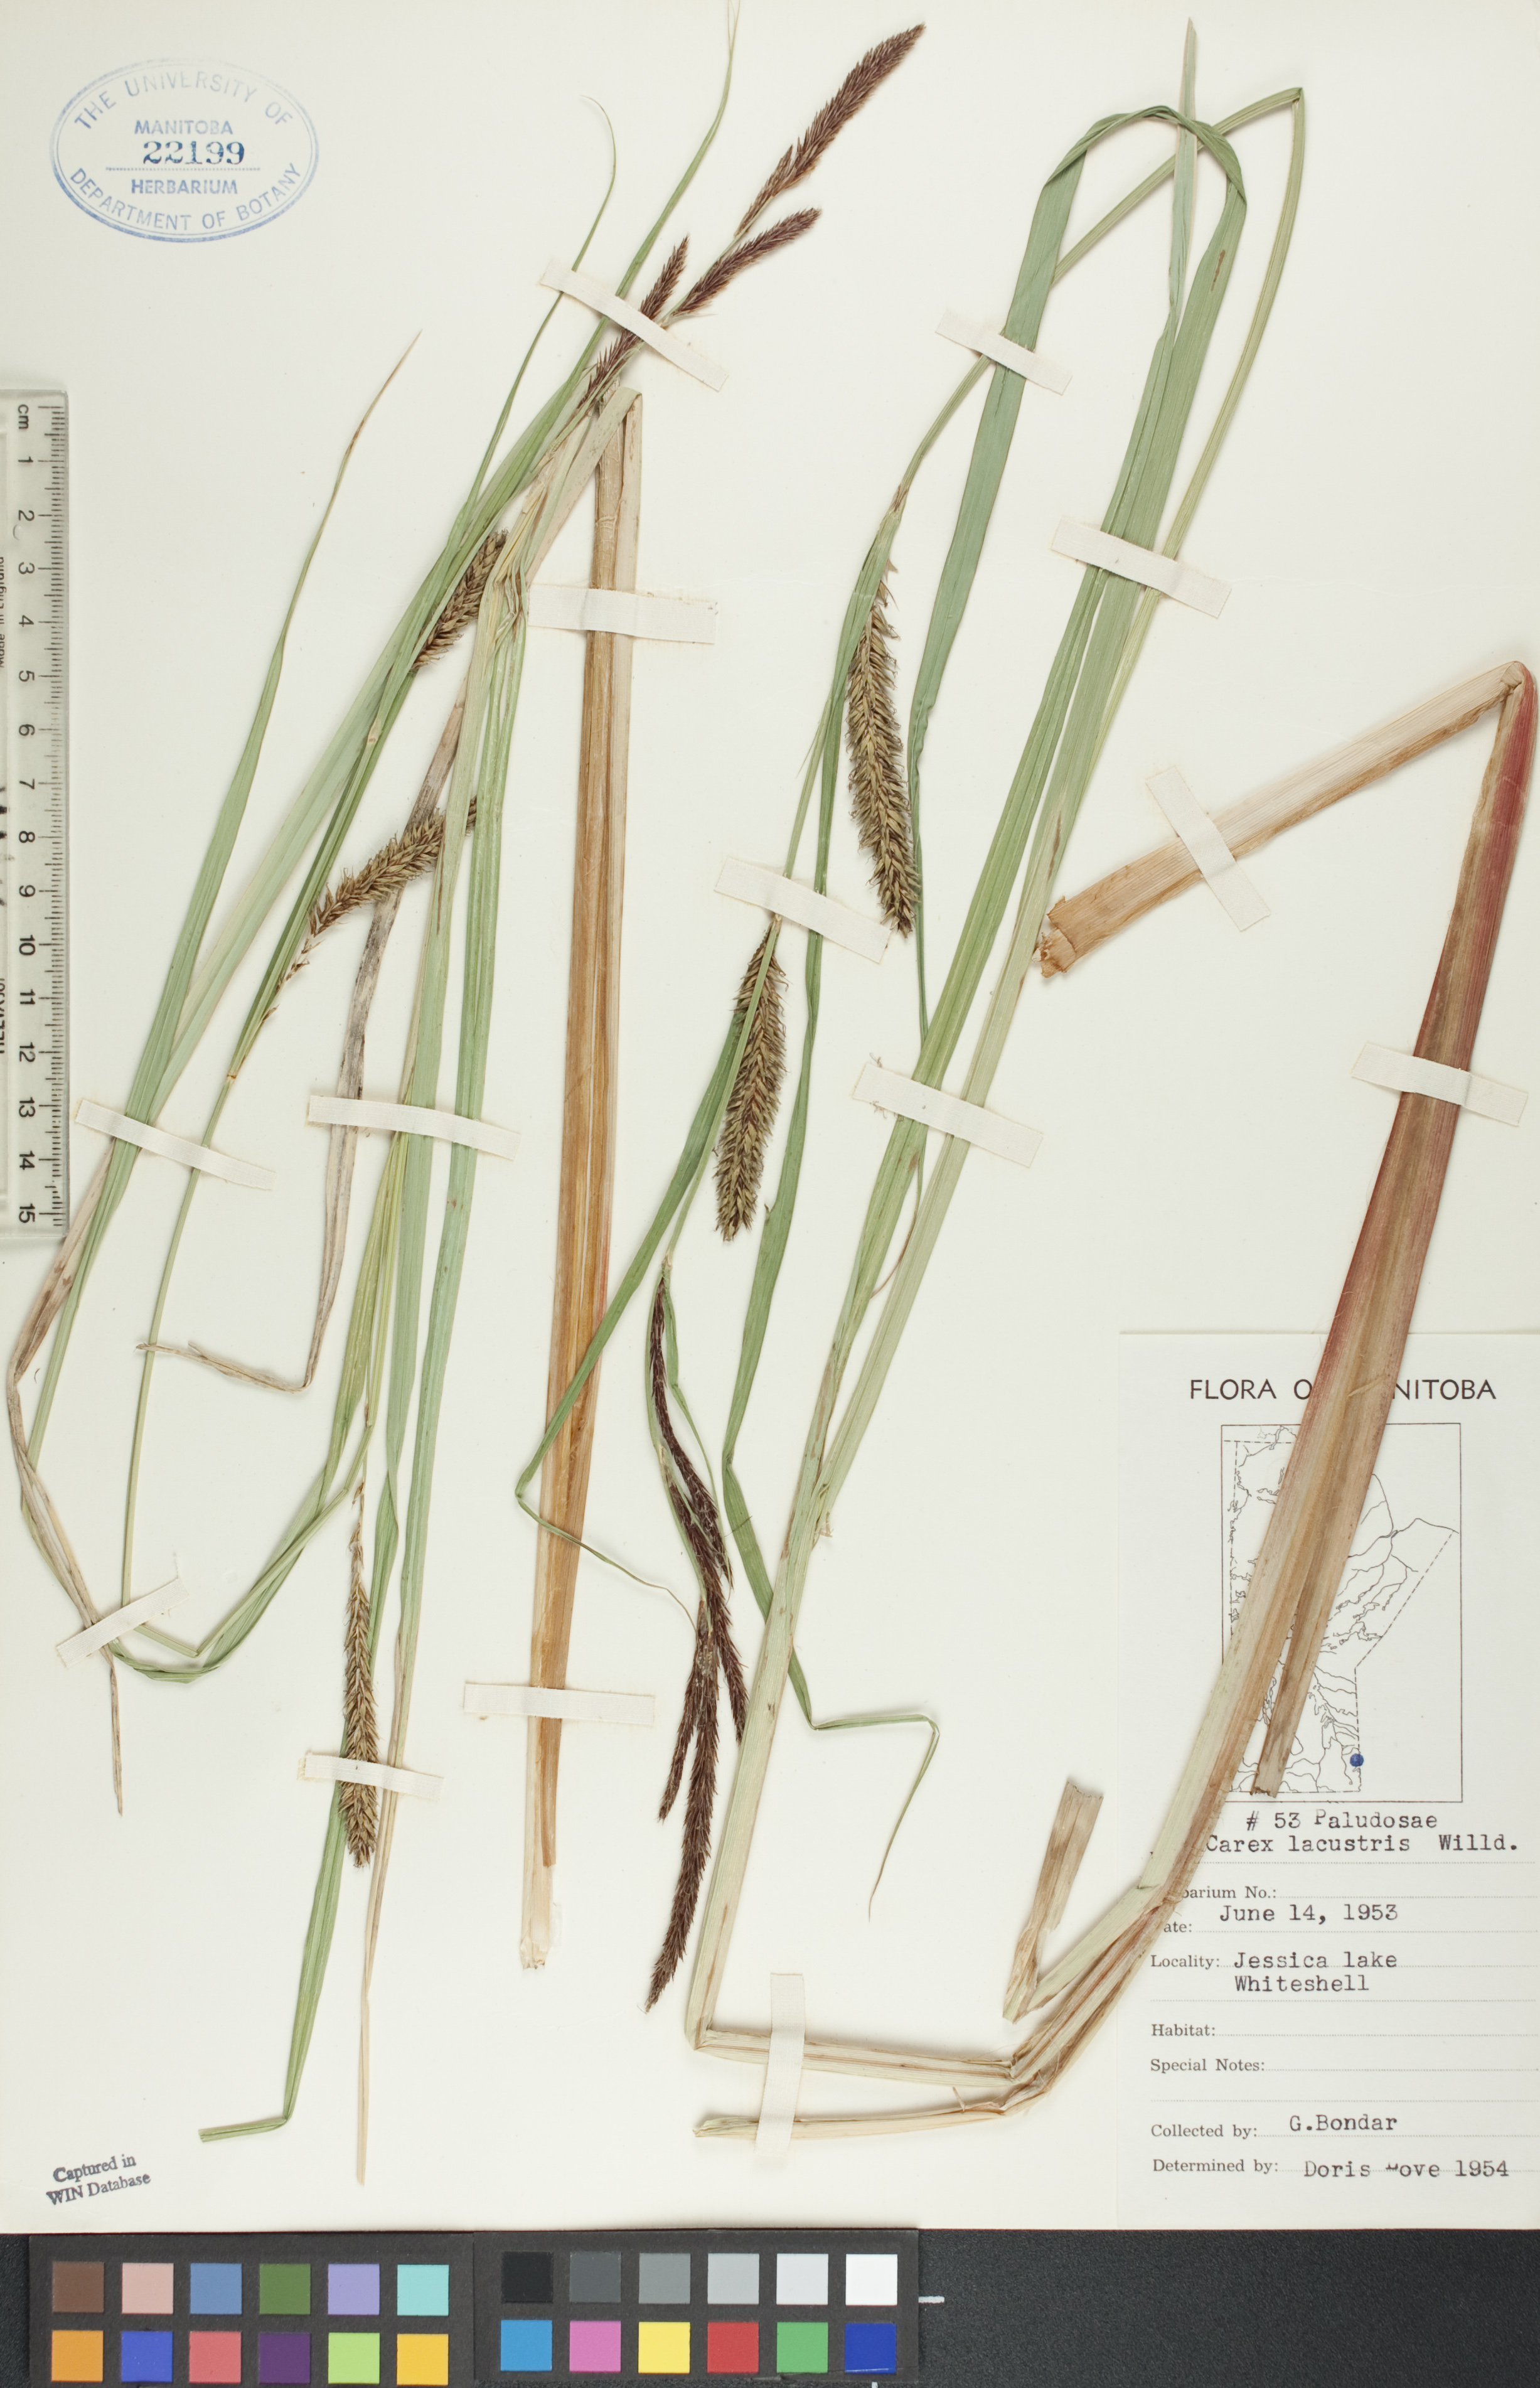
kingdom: Plantae
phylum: Tracheophyta
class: Liliopsida
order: Poales
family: Cyperaceae
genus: Carex
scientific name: Carex lacustris
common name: Common lake sedge
